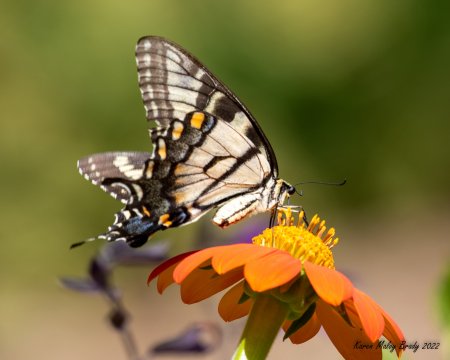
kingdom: Animalia
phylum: Arthropoda
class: Insecta
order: Lepidoptera
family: Papilionidae
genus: Pterourus
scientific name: Pterourus glaucus
